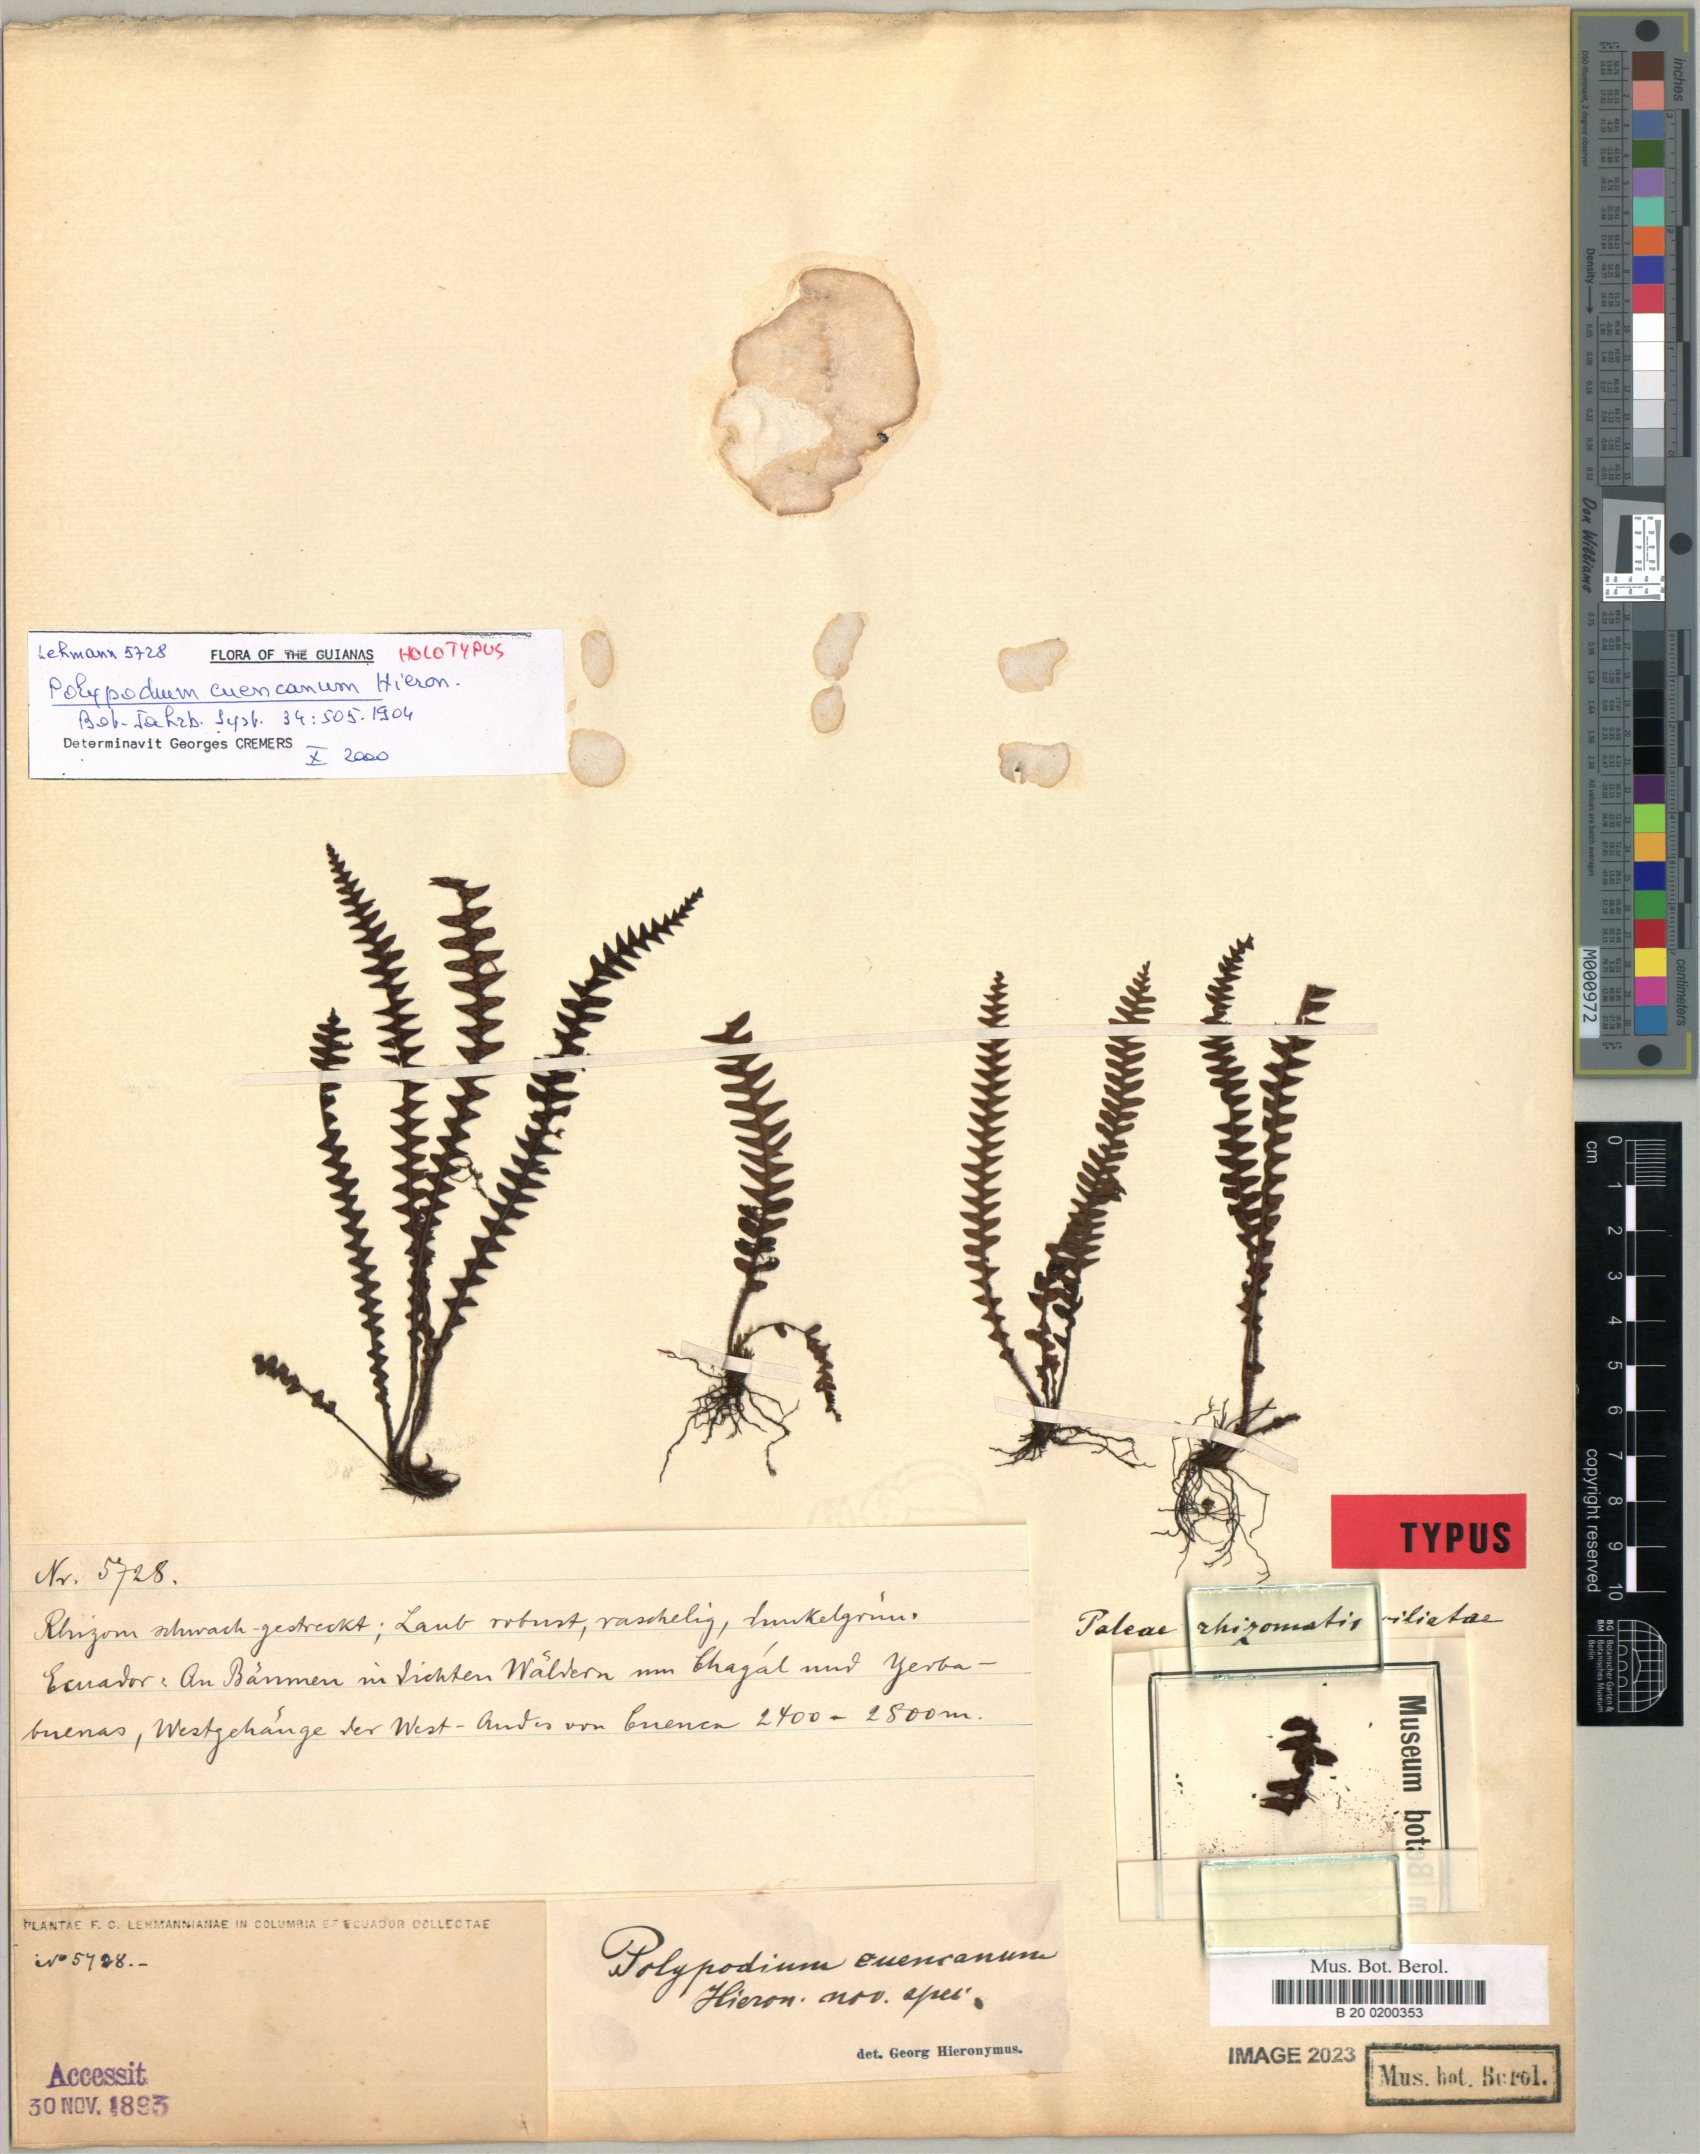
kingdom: Plantae
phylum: Tracheophyta
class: Polypodiopsida
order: Polypodiales
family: Polypodiaceae
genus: Ascogrammitis
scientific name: Ascogrammitis cuencana
